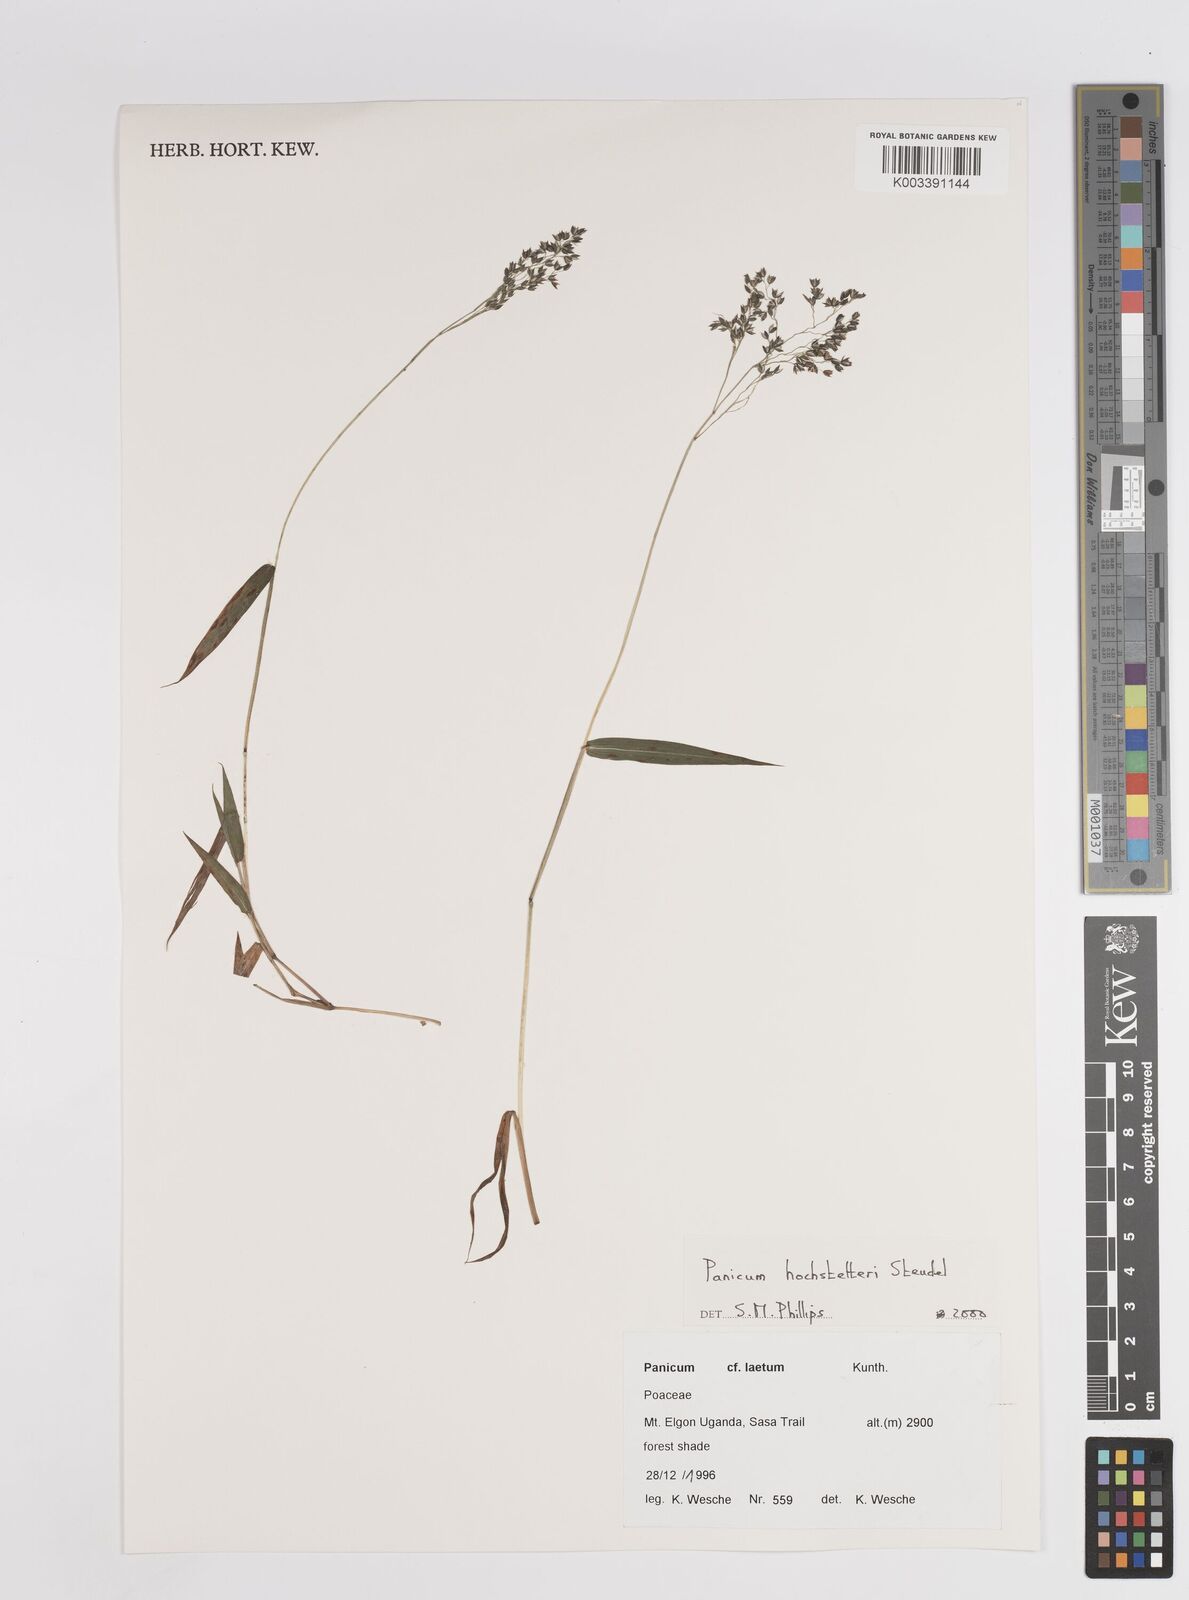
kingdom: Plantae
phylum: Tracheophyta
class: Liliopsida
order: Poales
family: Poaceae
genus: Panicum
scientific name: Panicum hochstetteri
